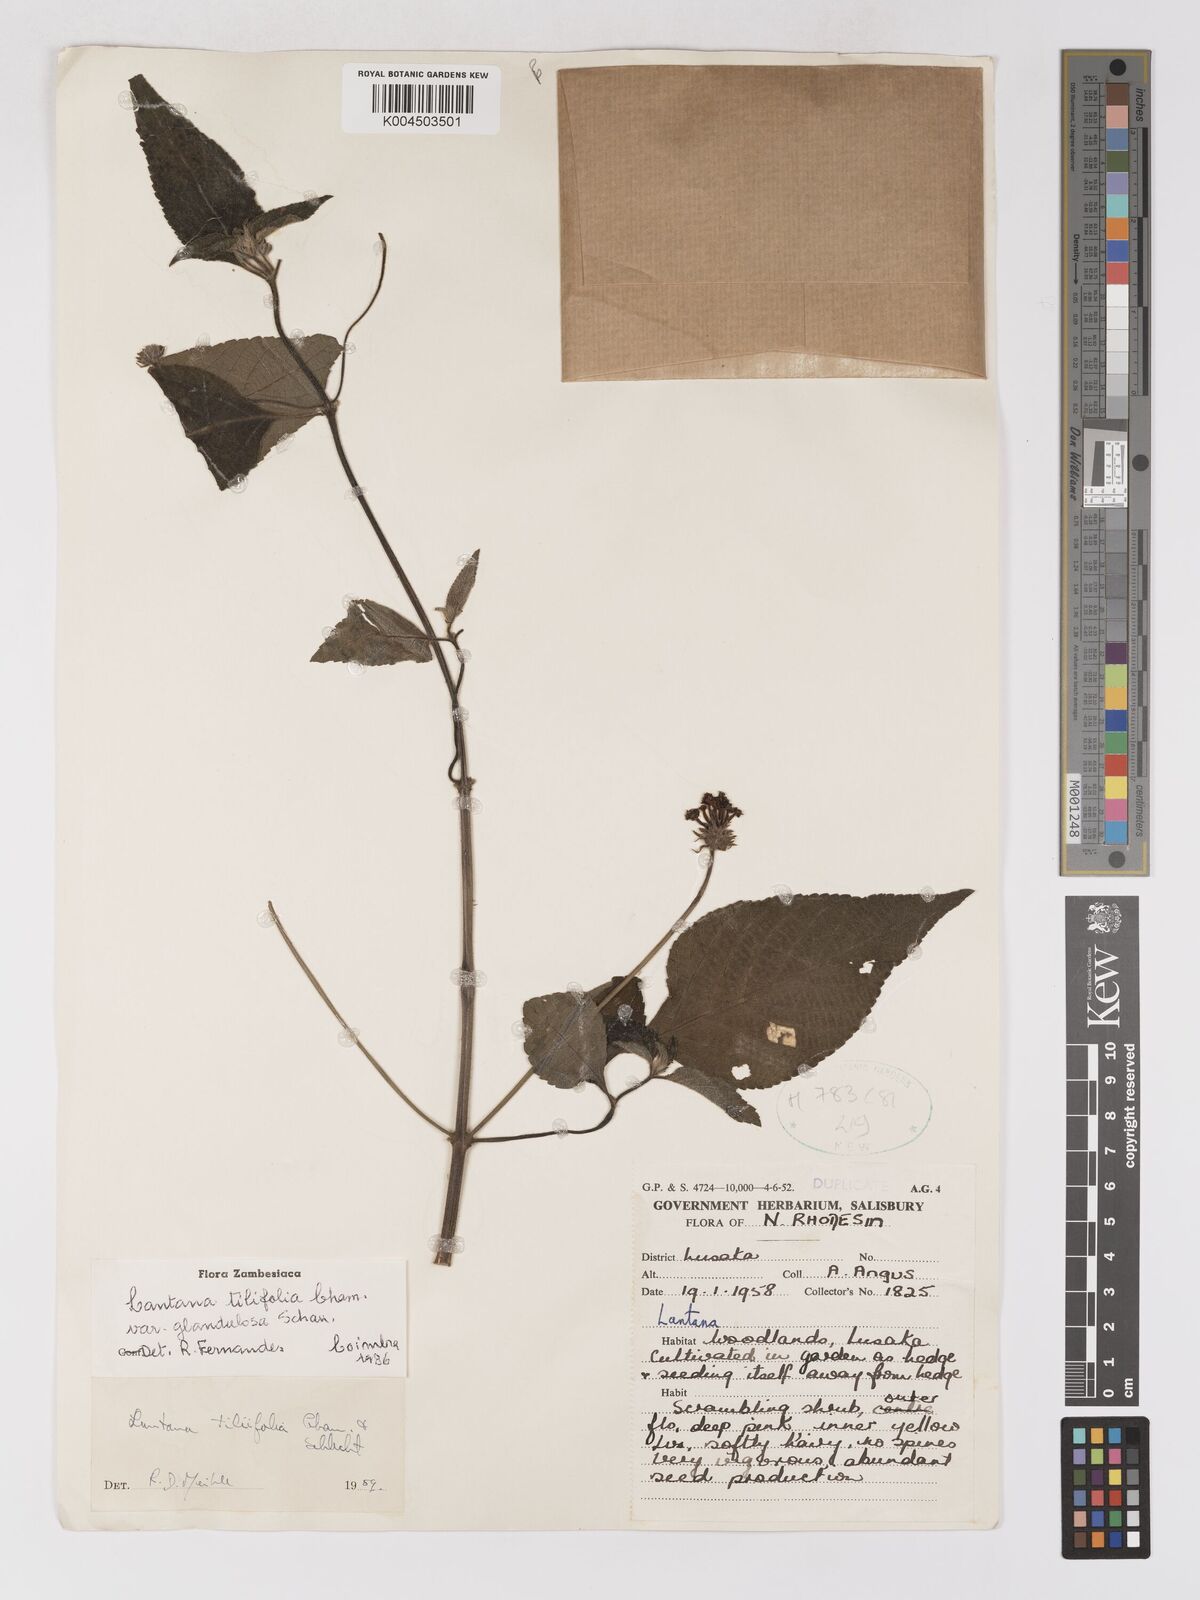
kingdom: Plantae
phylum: Tracheophyta
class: Magnoliopsida
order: Lamiales
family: Verbenaceae
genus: Lantana
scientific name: Lantana horrida
